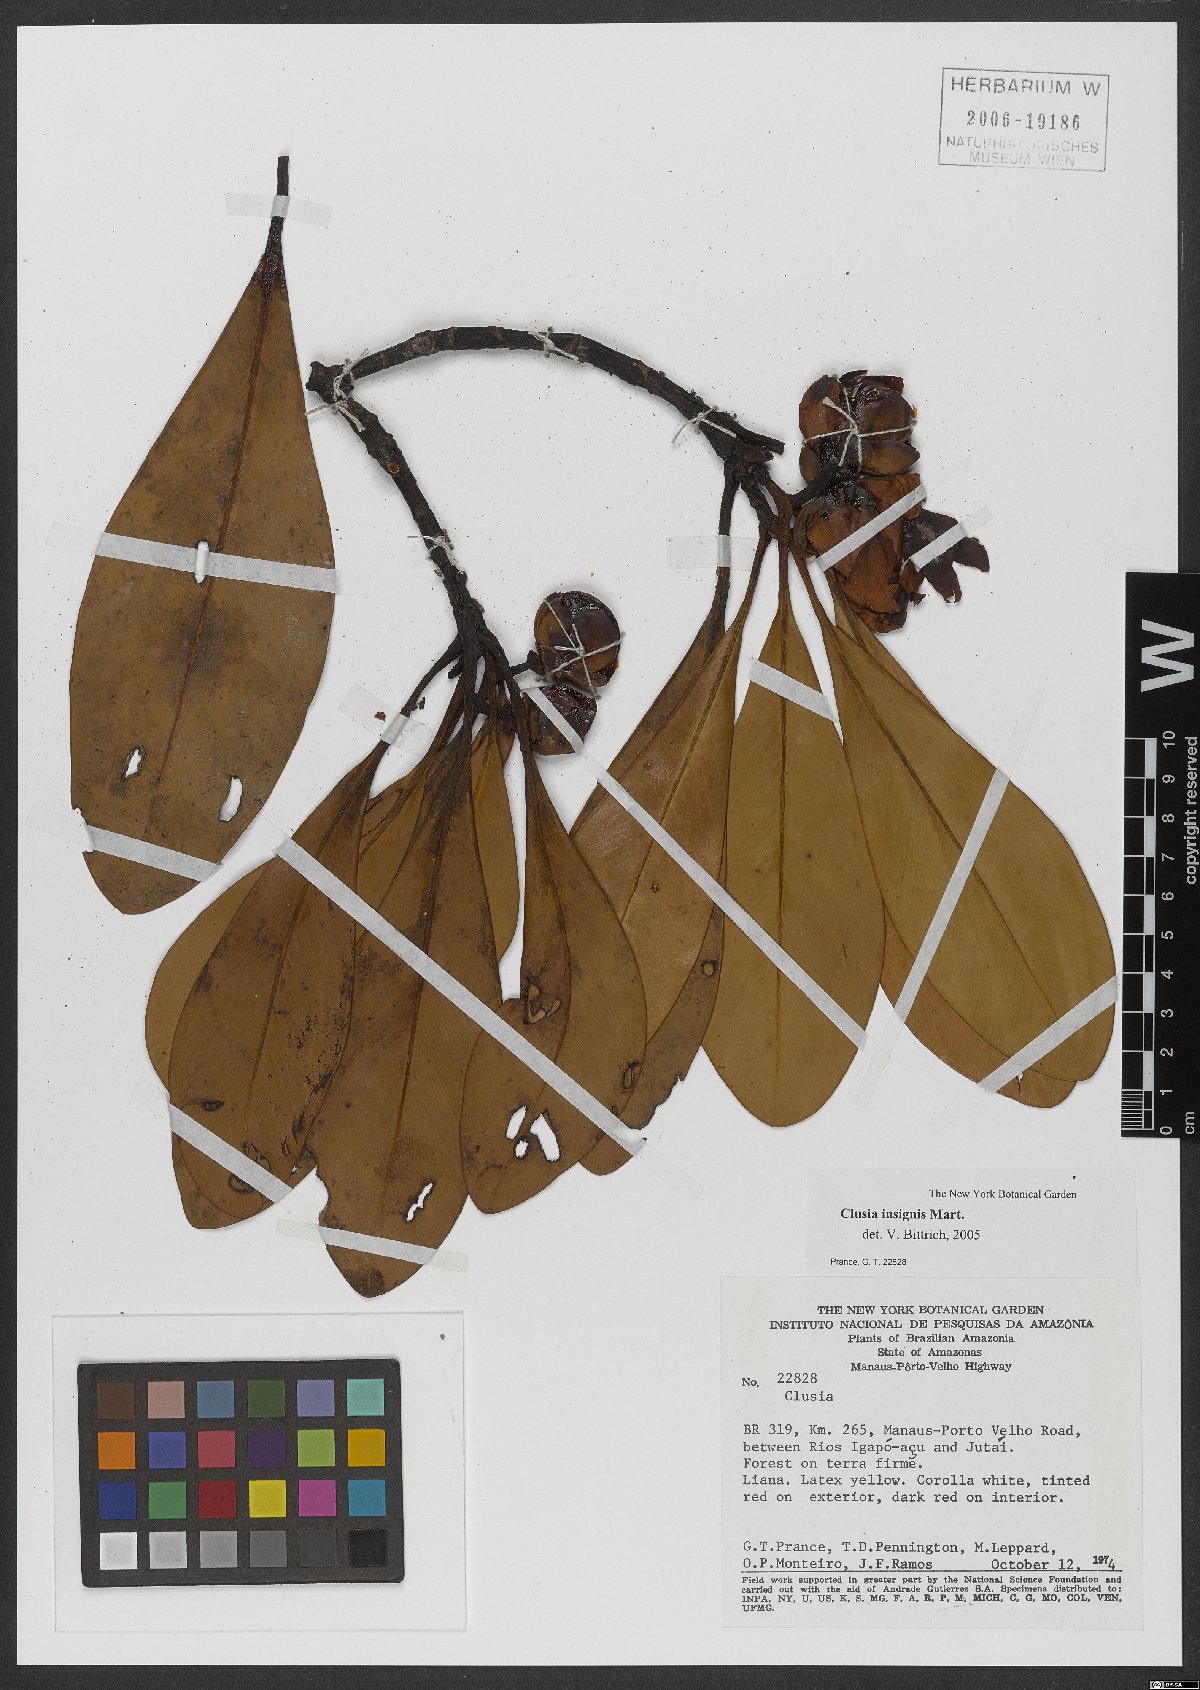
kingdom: Plantae
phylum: Tracheophyta
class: Magnoliopsida
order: Malpighiales
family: Clusiaceae
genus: Clusia
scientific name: Clusia insignis
